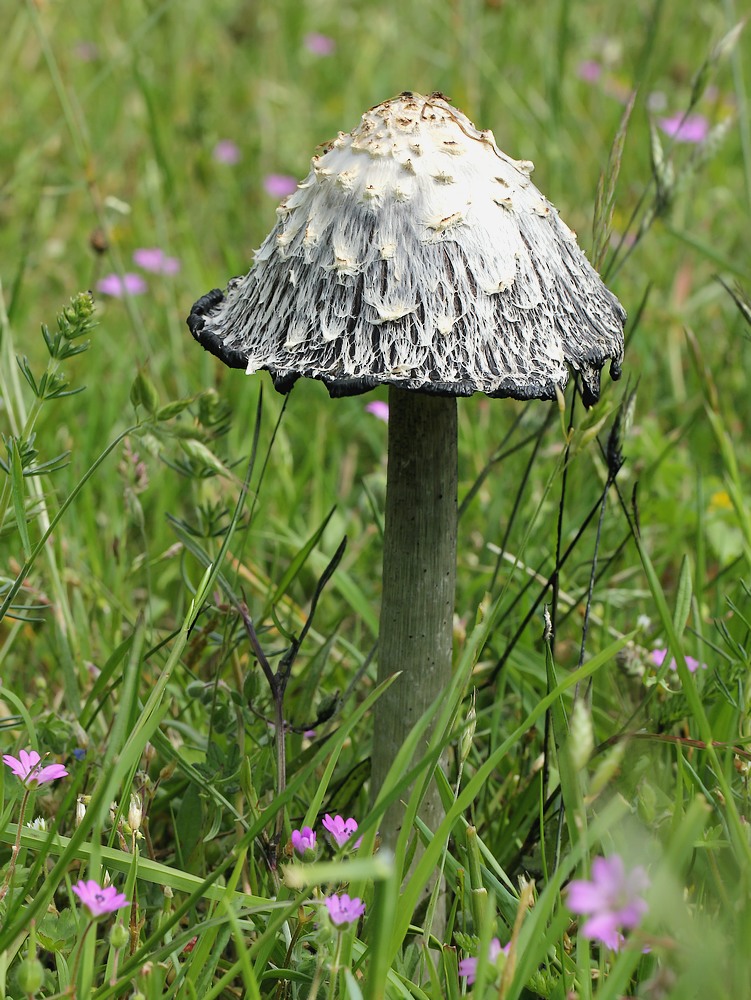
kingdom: Fungi
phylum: Basidiomycota
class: Agaricomycetes
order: Agaricales
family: Agaricaceae
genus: Coprinus
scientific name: Coprinus comatus
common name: stor parykhat
